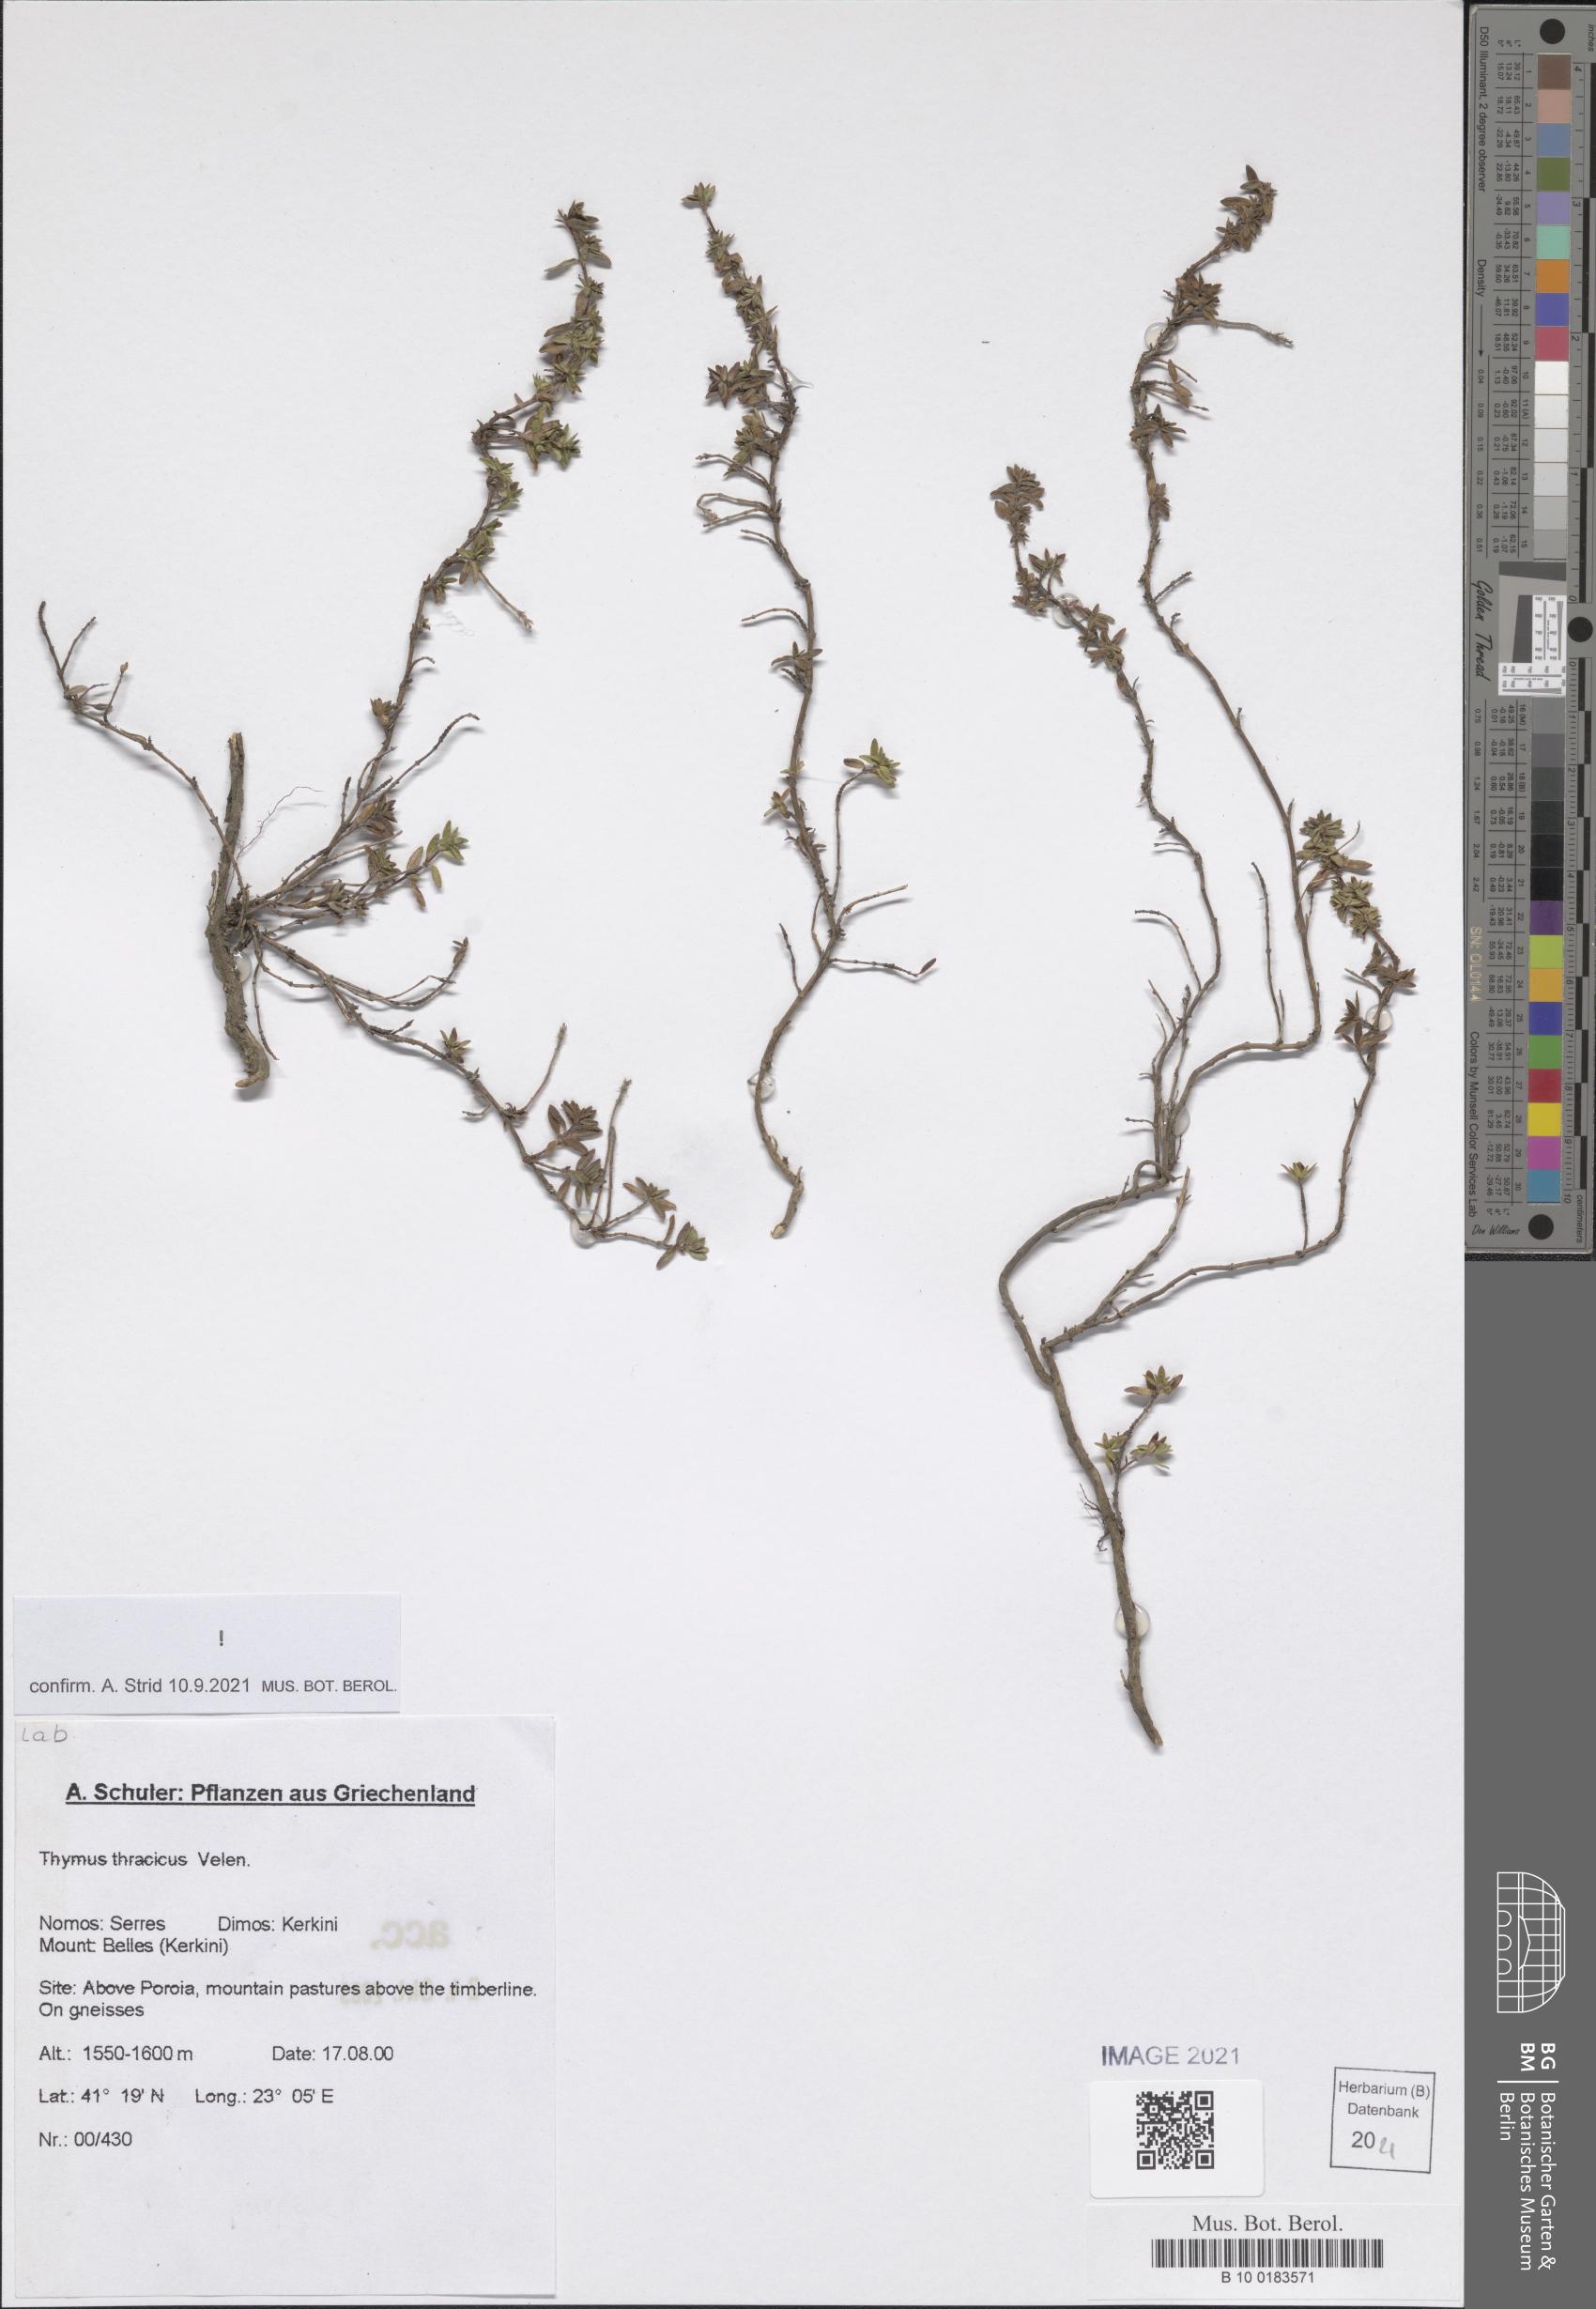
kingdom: Plantae
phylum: Tracheophyta
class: Magnoliopsida
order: Lamiales
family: Lamiaceae
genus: Thymus
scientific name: Thymus thracicus
